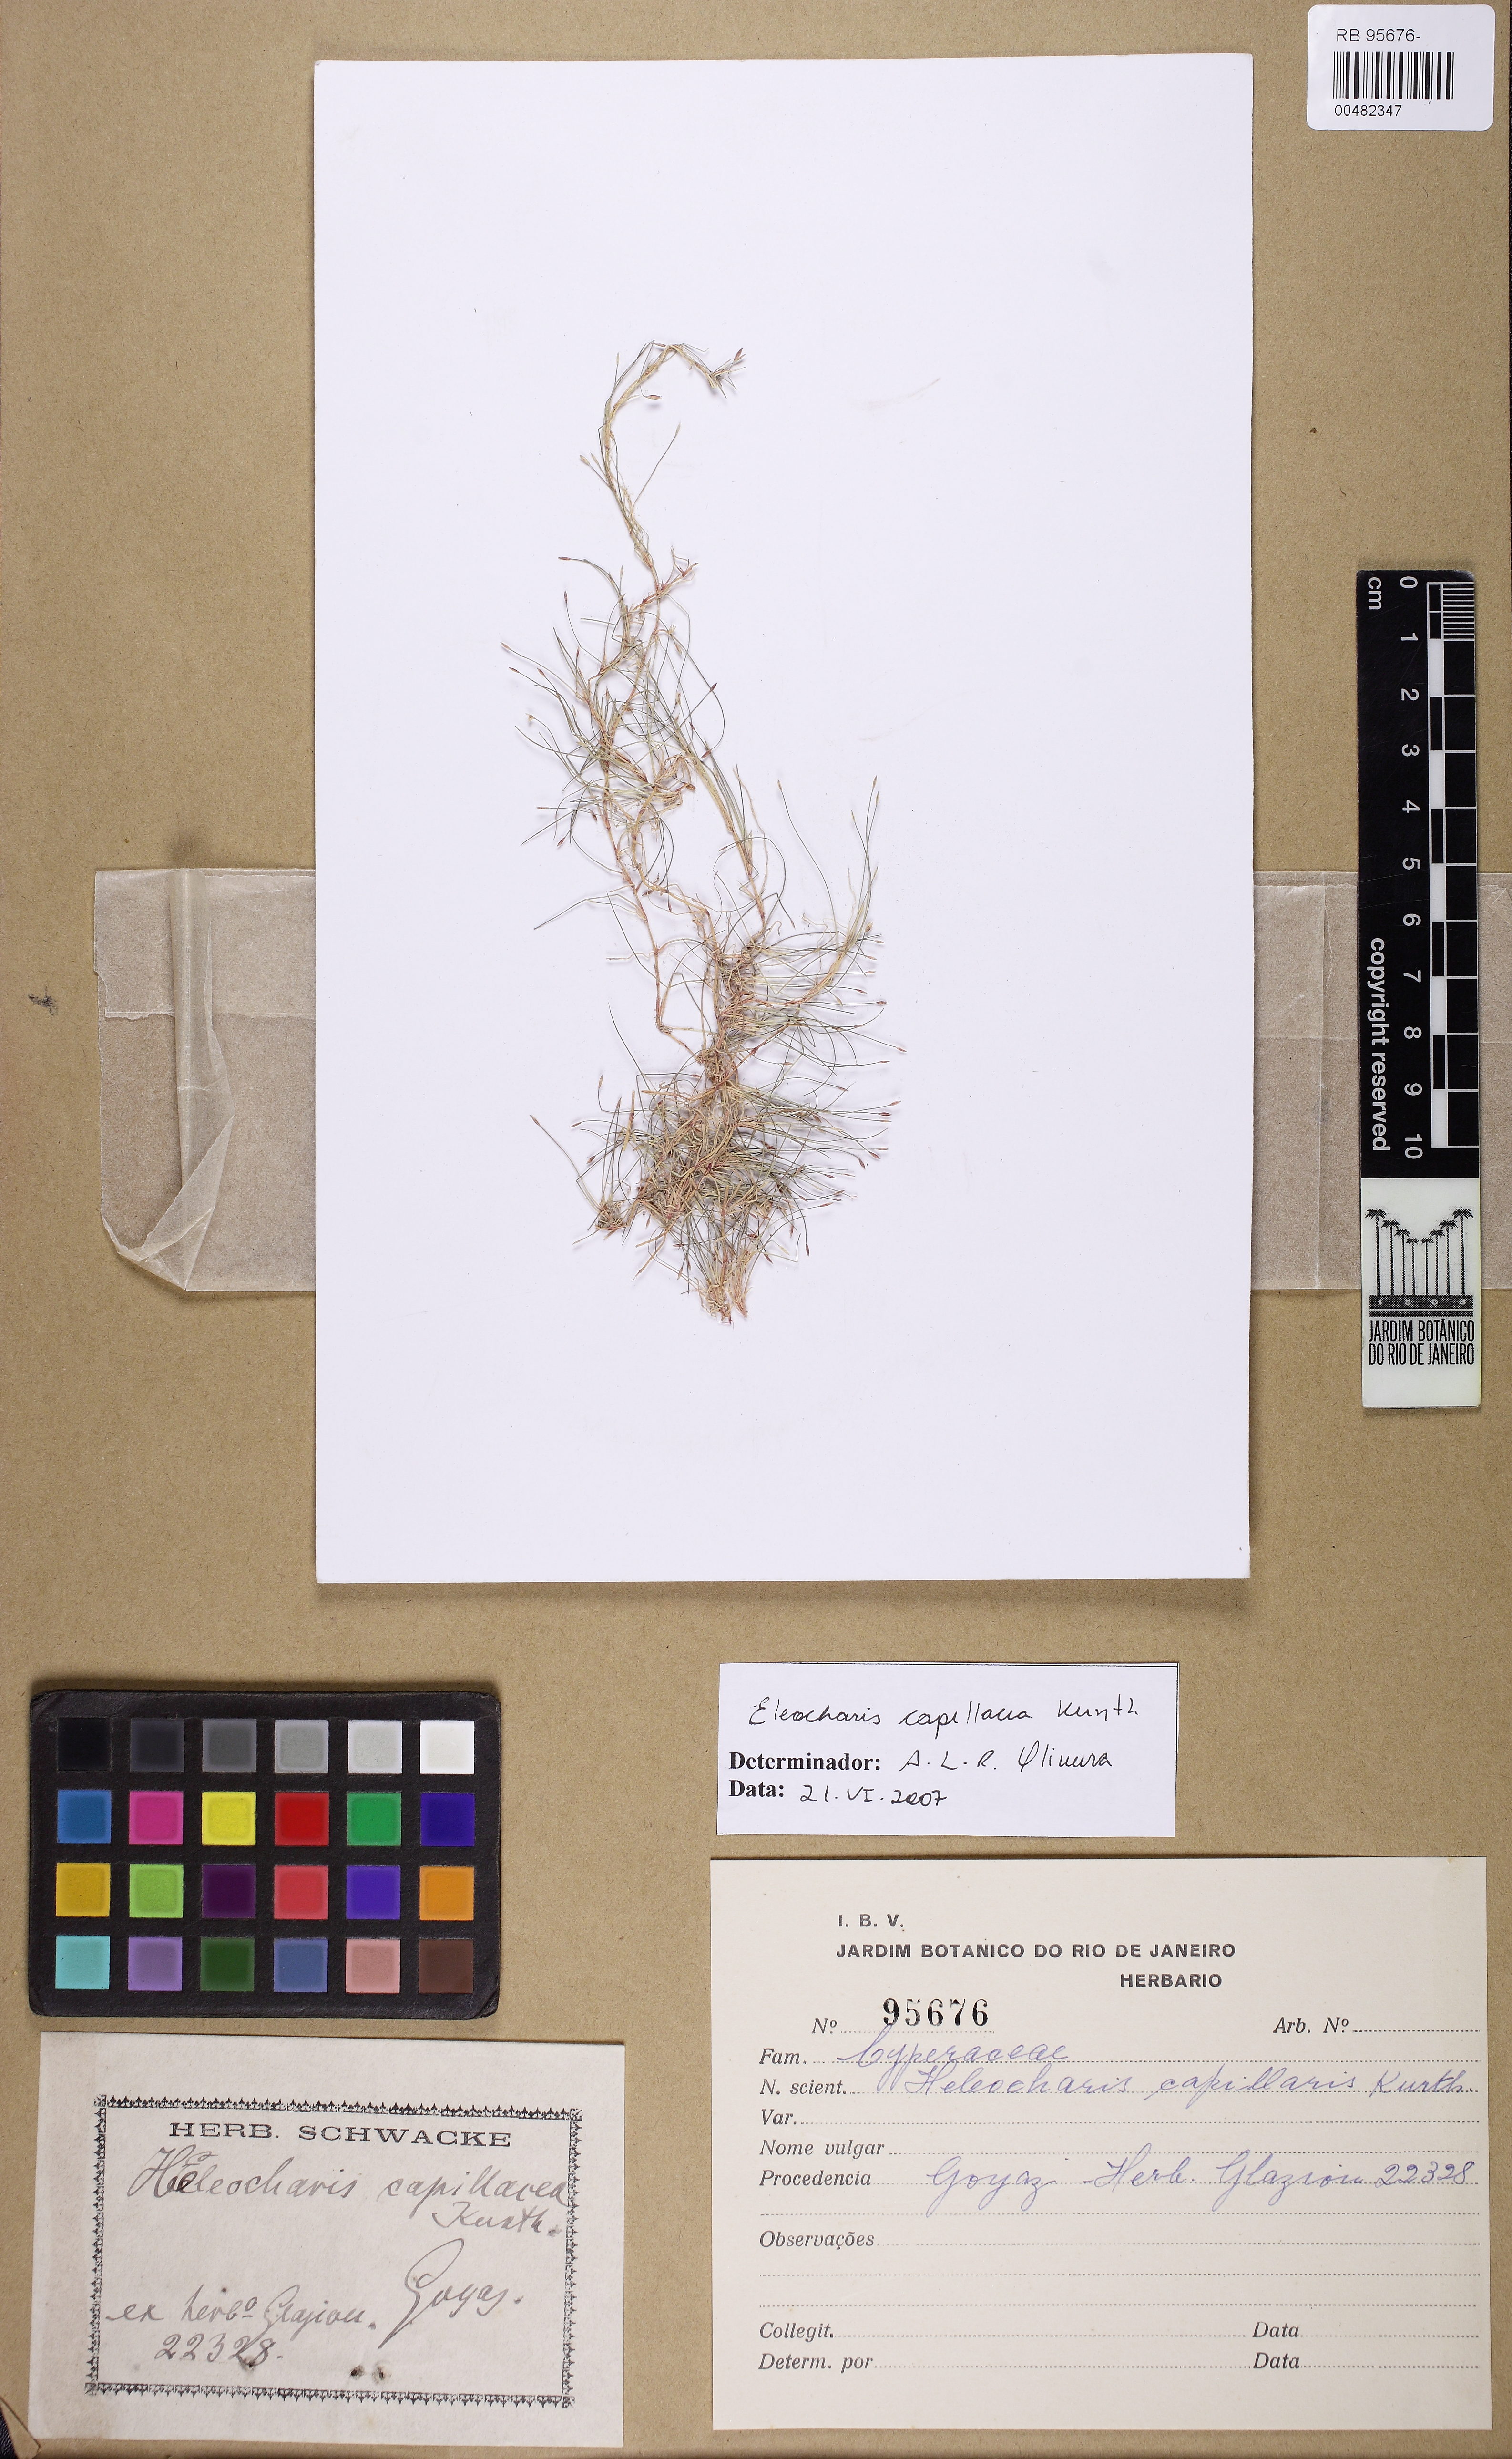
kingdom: Plantae
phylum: Tracheophyta
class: Liliopsida
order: Poales
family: Cyperaceae
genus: Eleocharis
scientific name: Eleocharis capillacea
